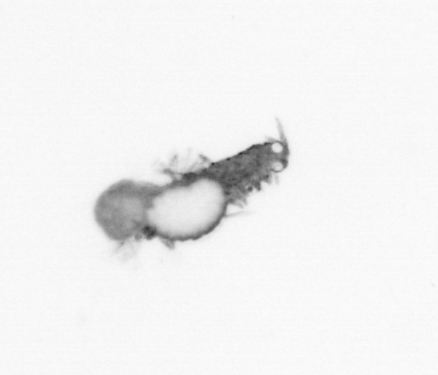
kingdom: Animalia
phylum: Annelida
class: Polychaeta
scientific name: Polychaeta
